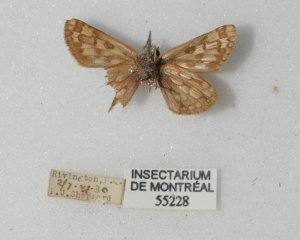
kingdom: Animalia
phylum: Arthropoda
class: Insecta
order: Lepidoptera
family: Hesperiidae
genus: Carterocephalus
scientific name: Carterocephalus palaemon
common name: Chequered Skipper
